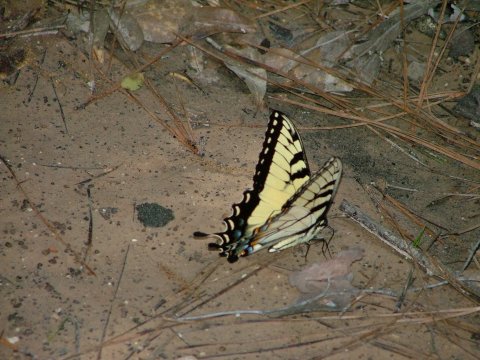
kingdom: Animalia
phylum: Arthropoda
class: Insecta
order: Lepidoptera
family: Papilionidae
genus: Pterourus
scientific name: Pterourus glaucus
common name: Eastern Tiger Swallowtail
